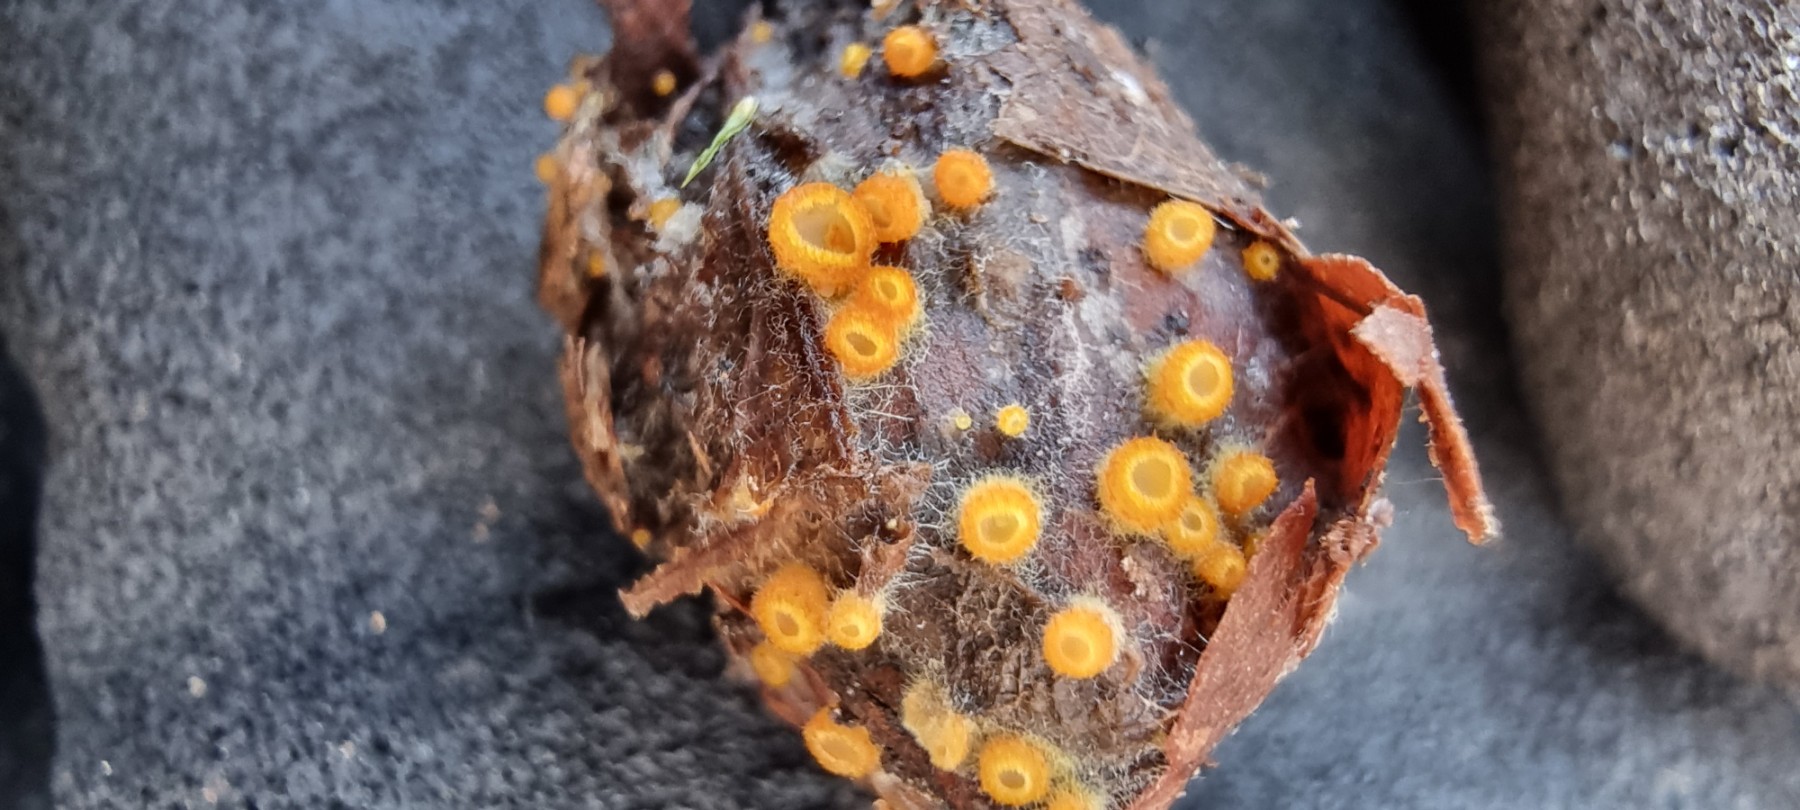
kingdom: Fungi
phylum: Ascomycota
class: Leotiomycetes
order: Helotiales
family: Arachnopezizaceae
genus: Arachnopeziza
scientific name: Arachnopeziza aurelia
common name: flamme-spindskive
